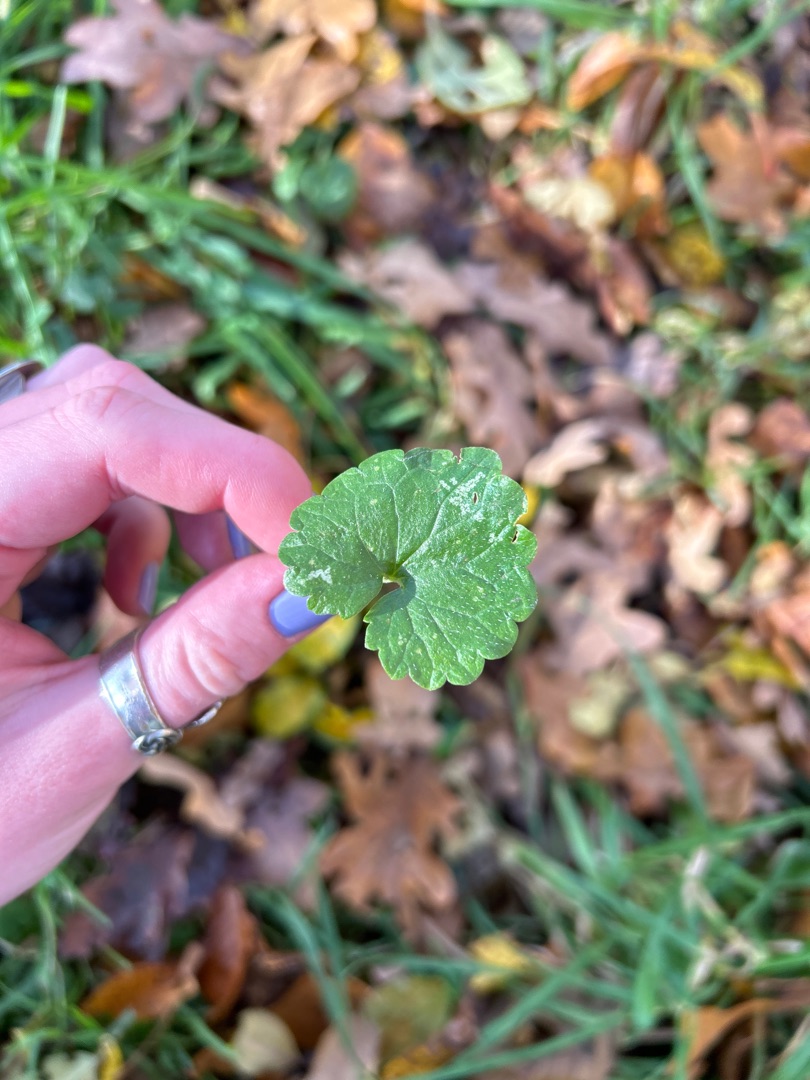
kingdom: Plantae
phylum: Tracheophyta
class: Magnoliopsida
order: Lamiales
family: Lamiaceae
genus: Glechoma
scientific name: Glechoma hederacea
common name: Korsknap
